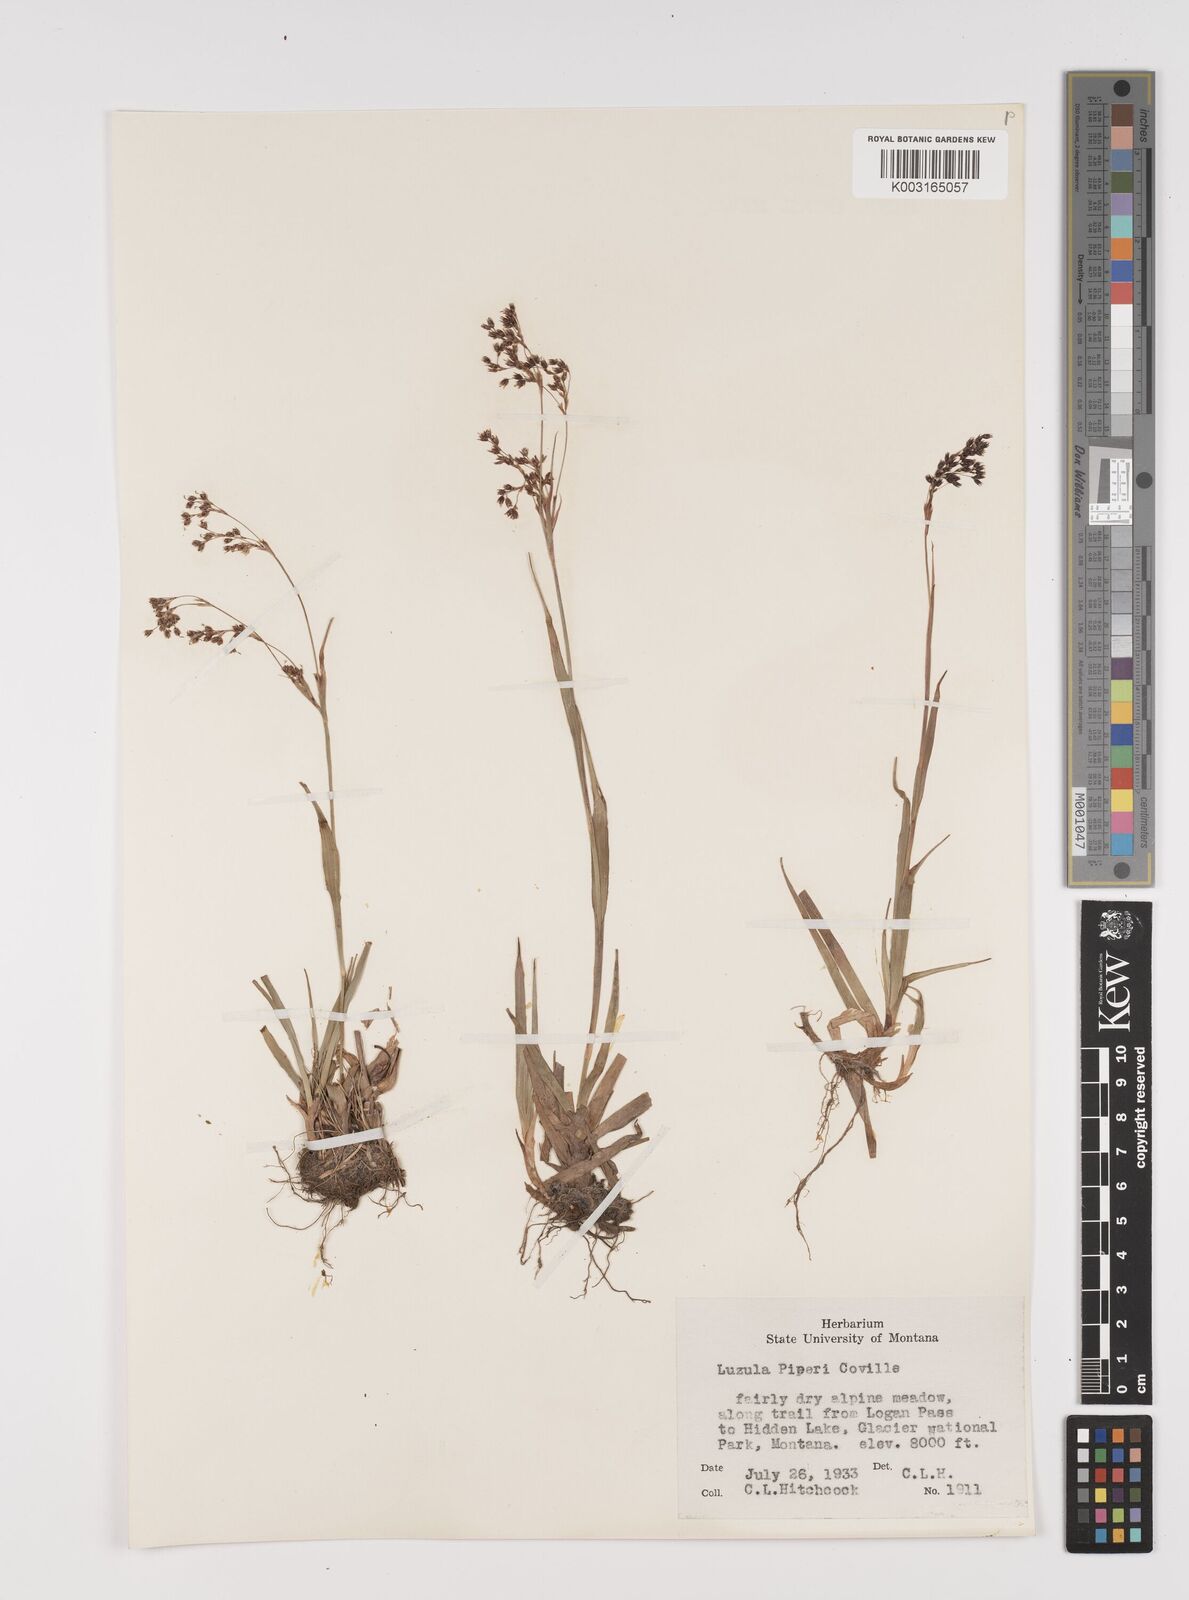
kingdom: Plantae
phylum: Tracheophyta
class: Liliopsida
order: Poales
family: Juncaceae
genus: Luzula
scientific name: Luzula piperi
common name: Piper's wood-rush
